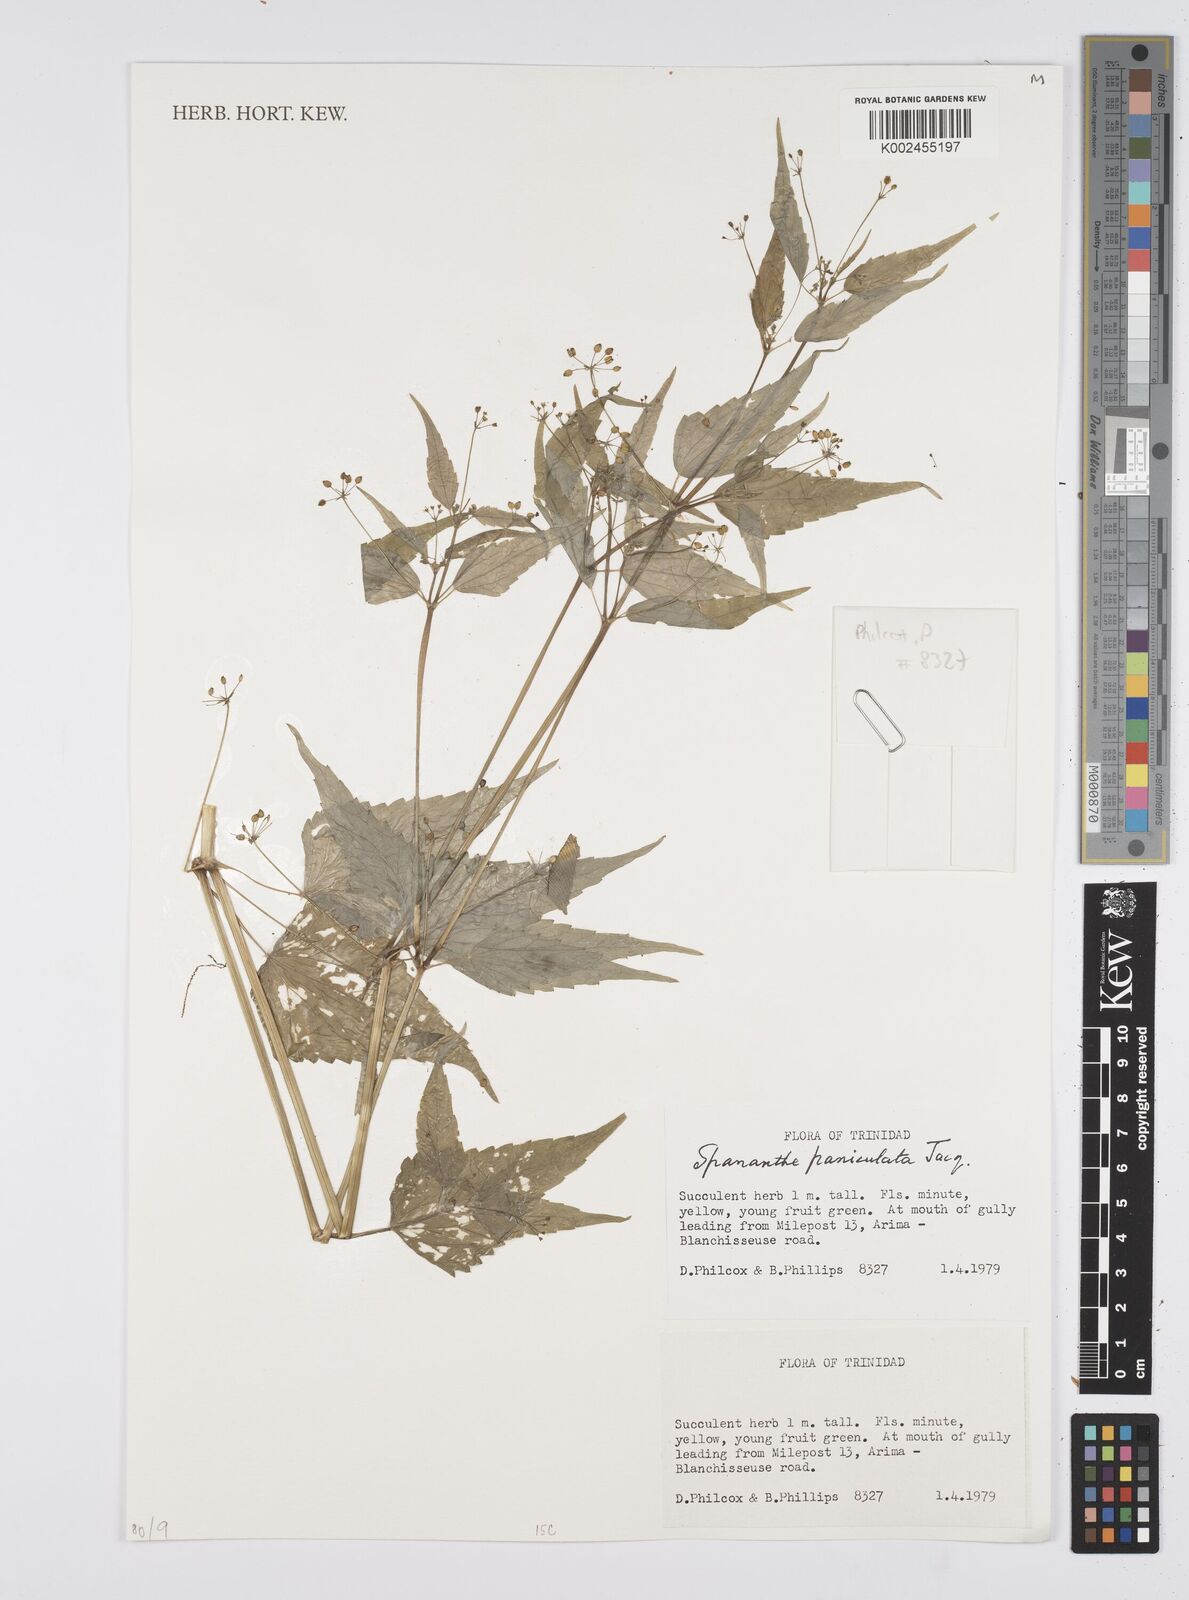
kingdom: Plantae
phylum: Tracheophyta
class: Magnoliopsida
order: Apiales
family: Apiaceae
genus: Azorella
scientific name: Azorella
